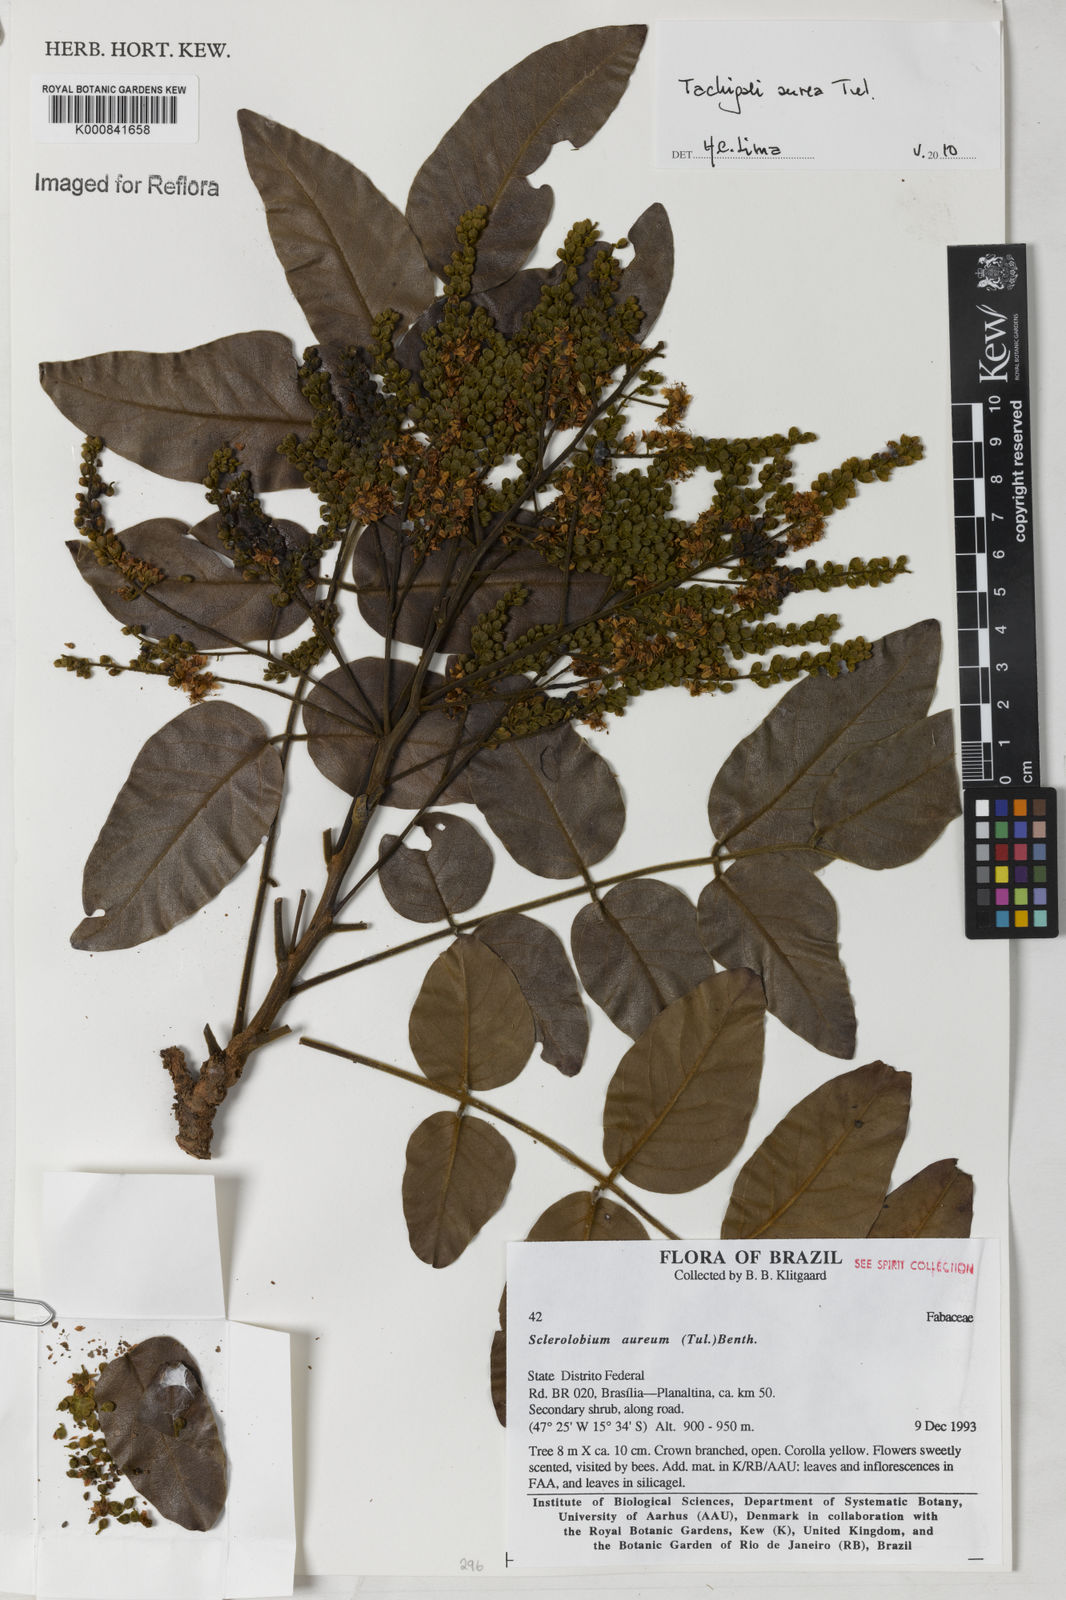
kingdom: Plantae
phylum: Tracheophyta
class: Magnoliopsida
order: Fabales
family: Fabaceae
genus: Tachigali
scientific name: Tachigali aurea
